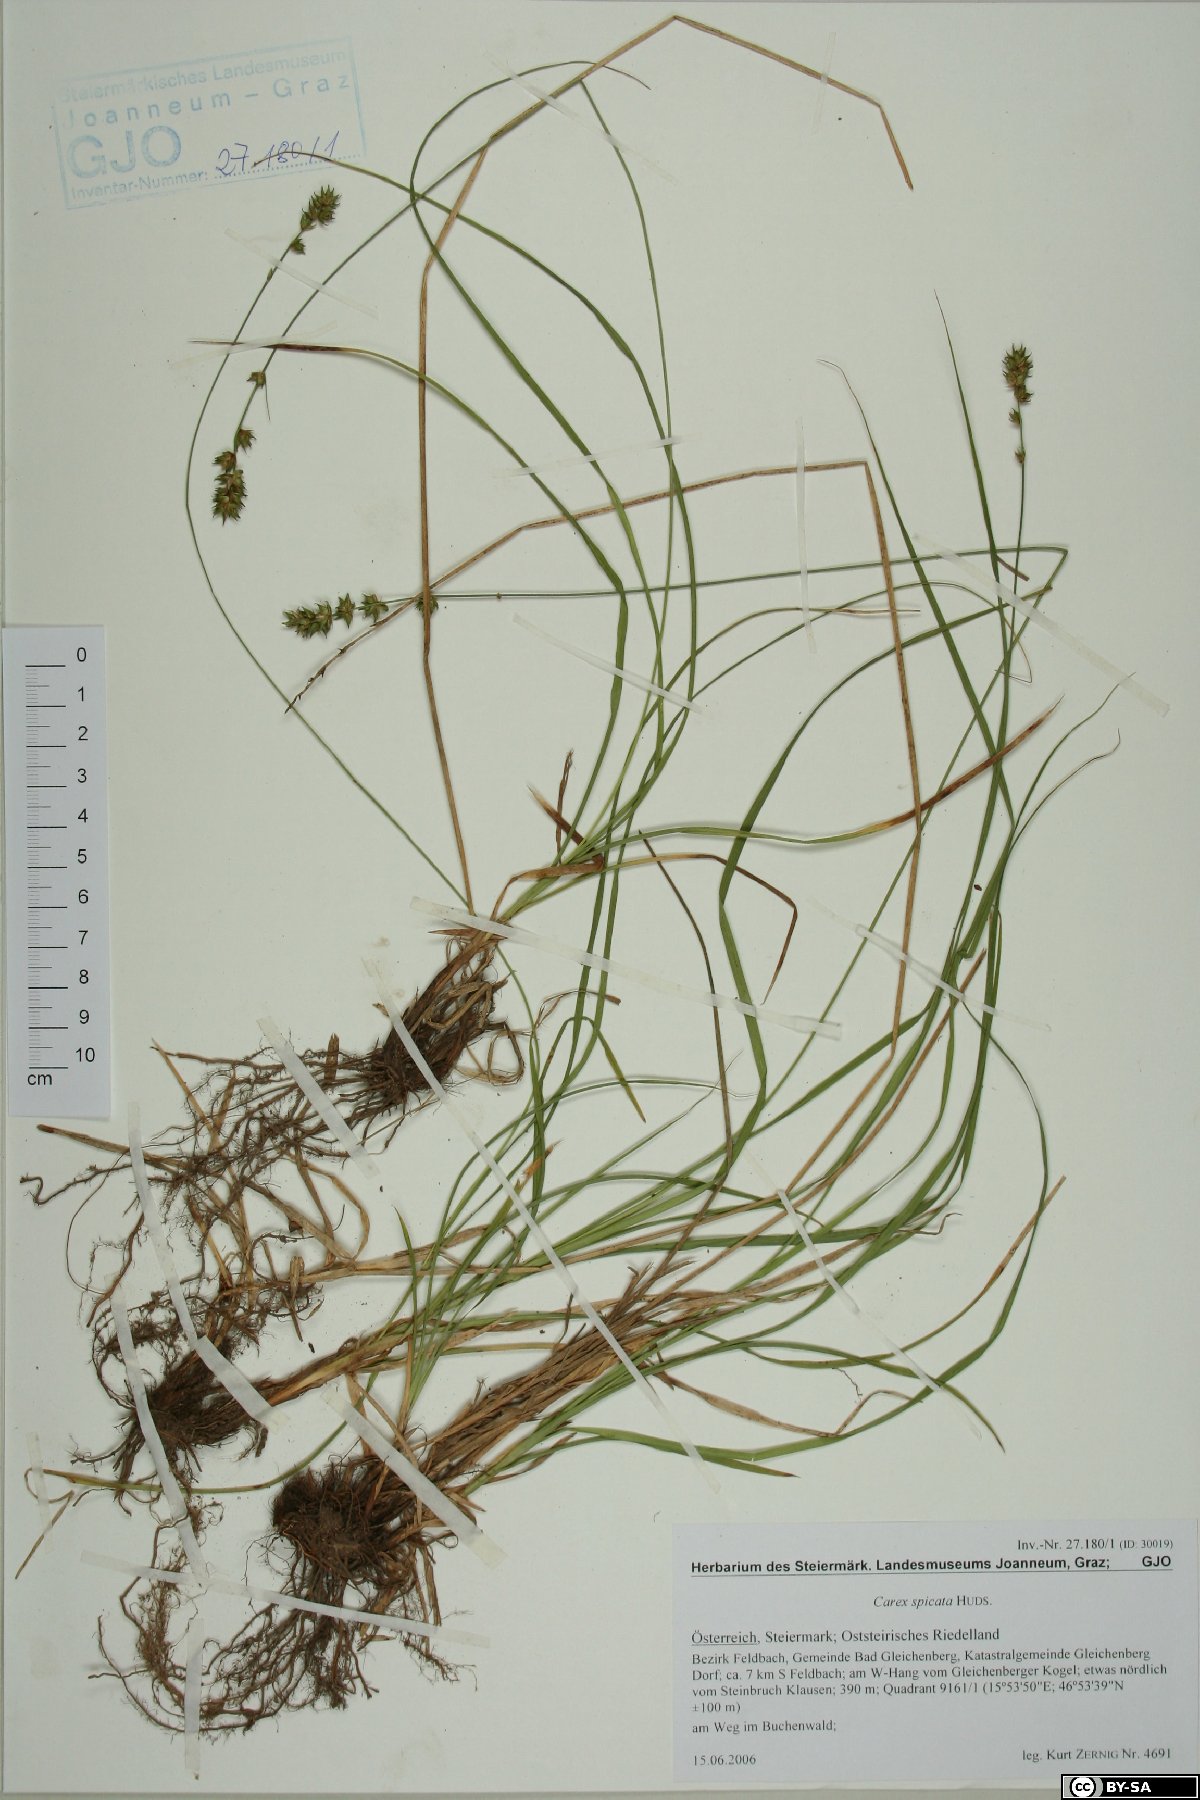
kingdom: Plantae
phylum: Tracheophyta
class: Liliopsida
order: Poales
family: Cyperaceae
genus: Carex
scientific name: Carex spicata
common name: Spiked sedge
